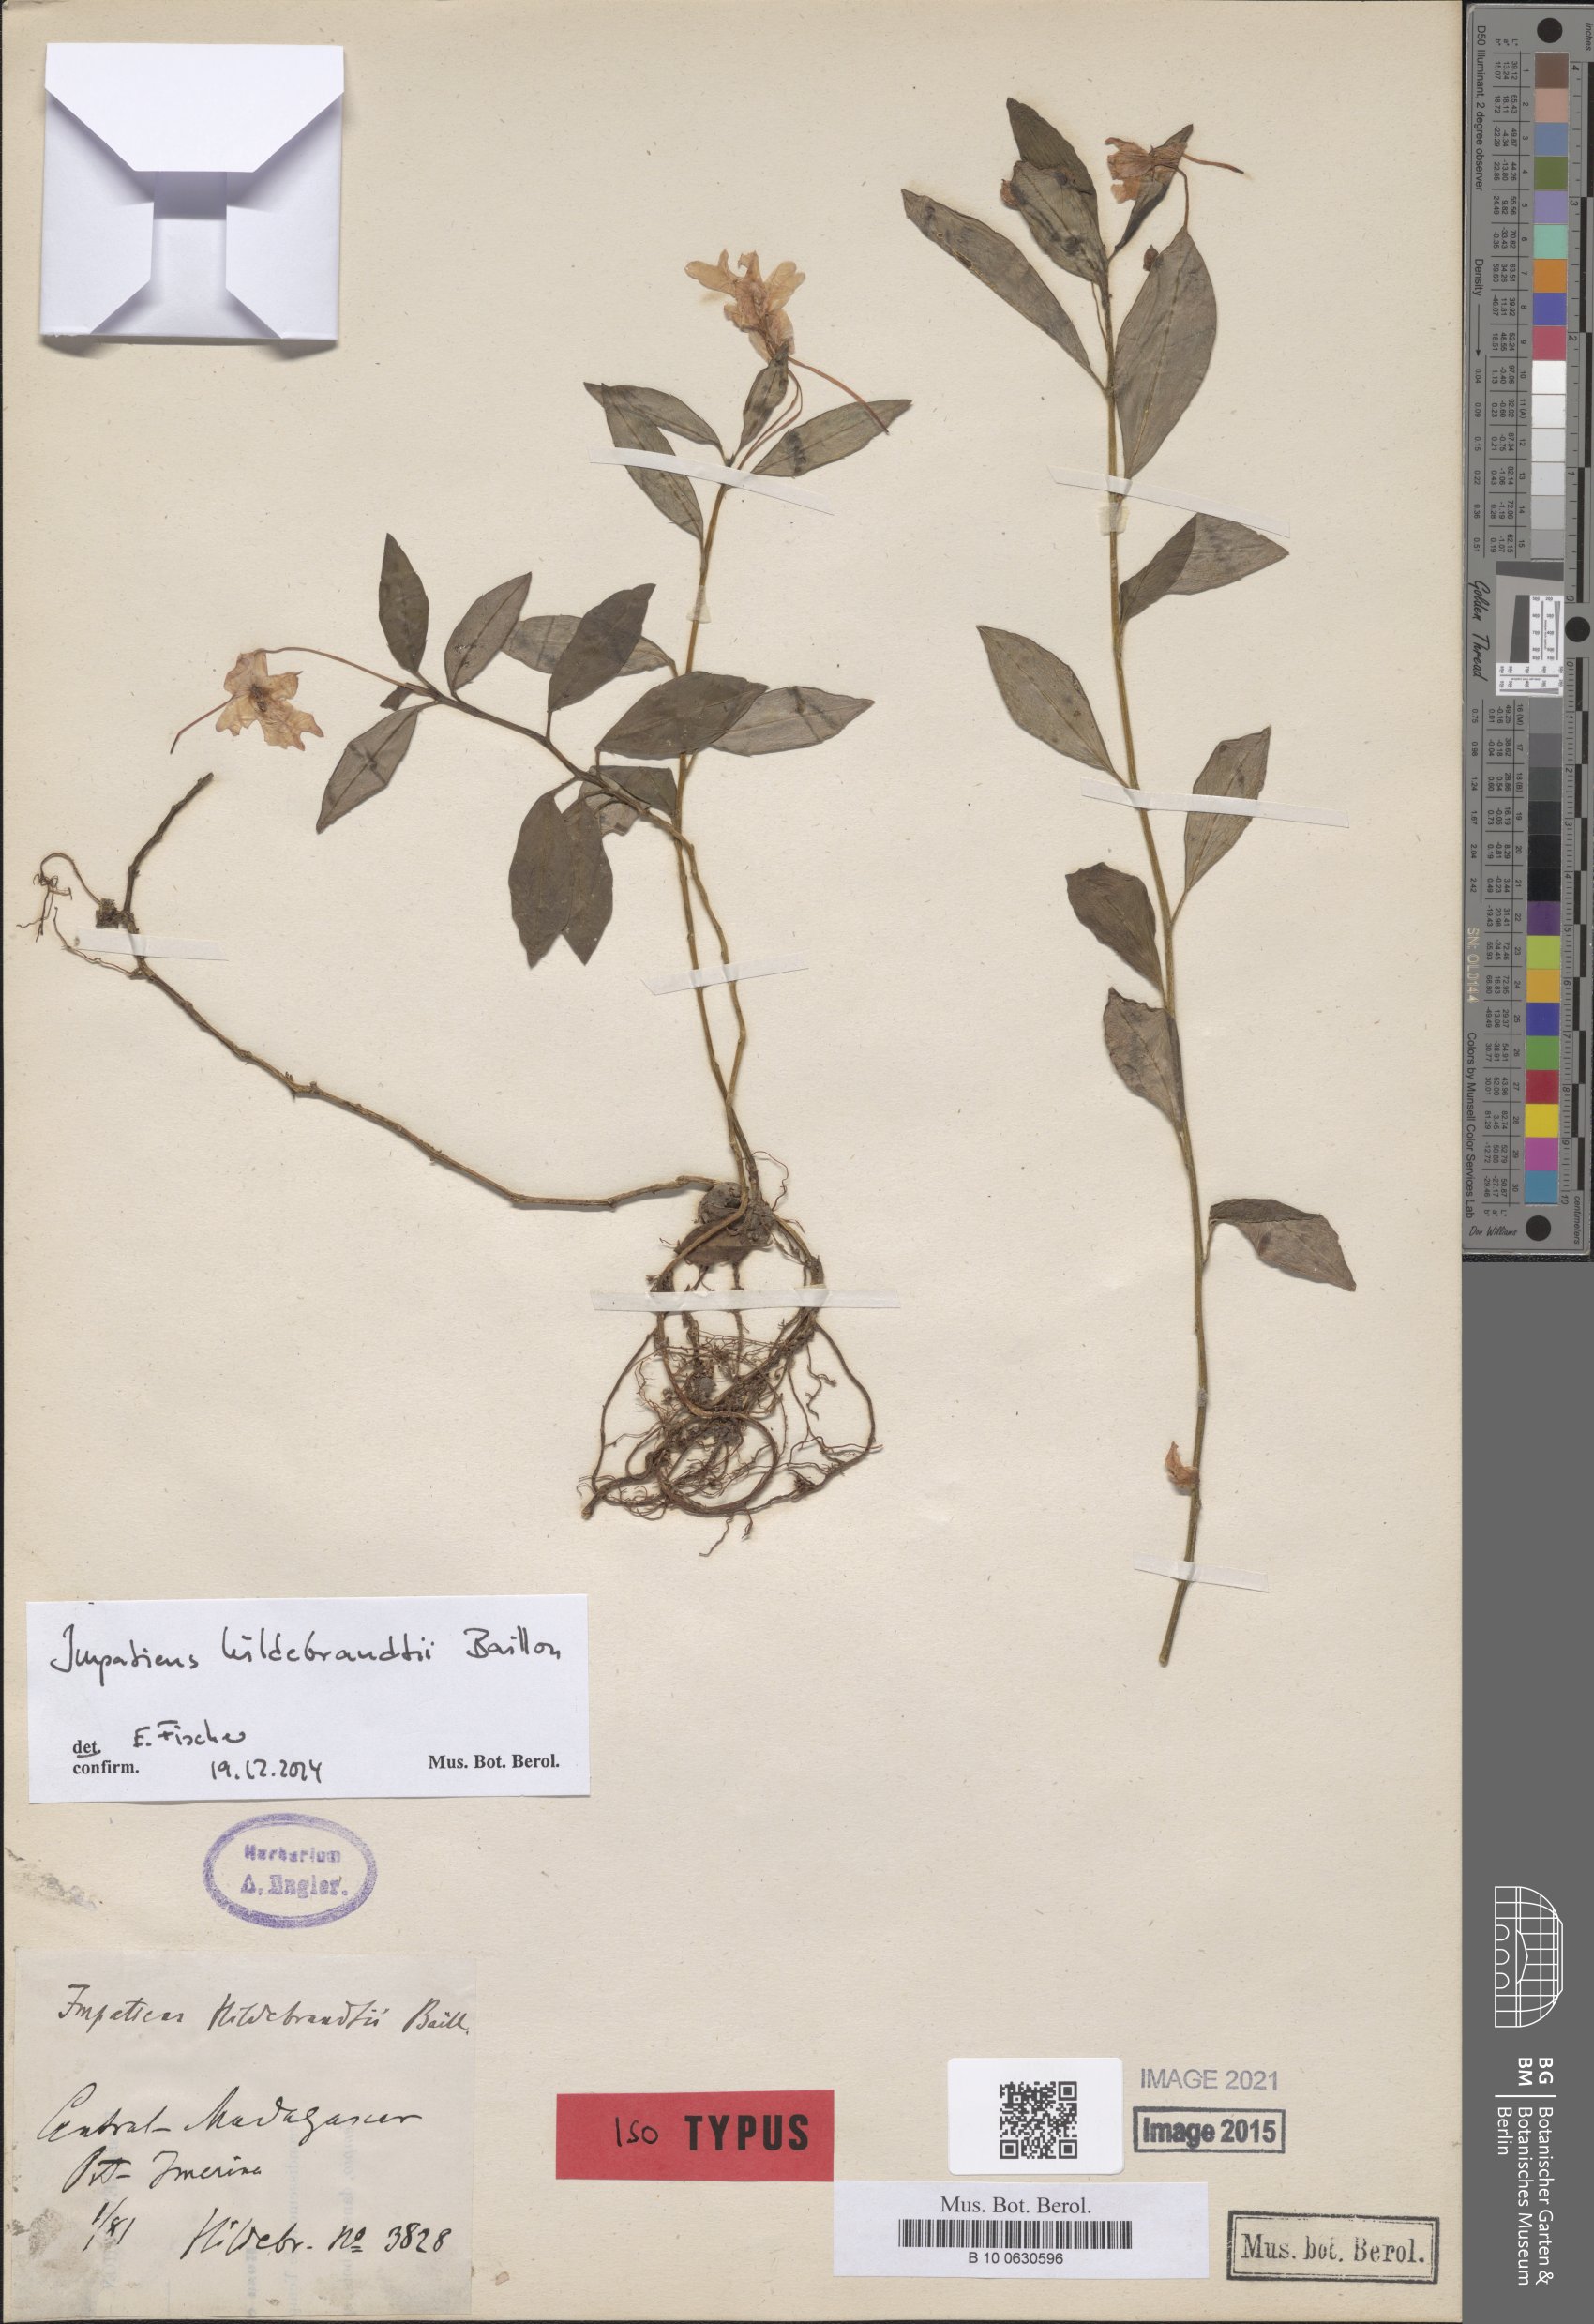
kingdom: Plantae
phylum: Tracheophyta
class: Magnoliopsida
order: Ericales
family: Balsaminaceae
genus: Impatiens
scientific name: Impatiens hildebrandtii
